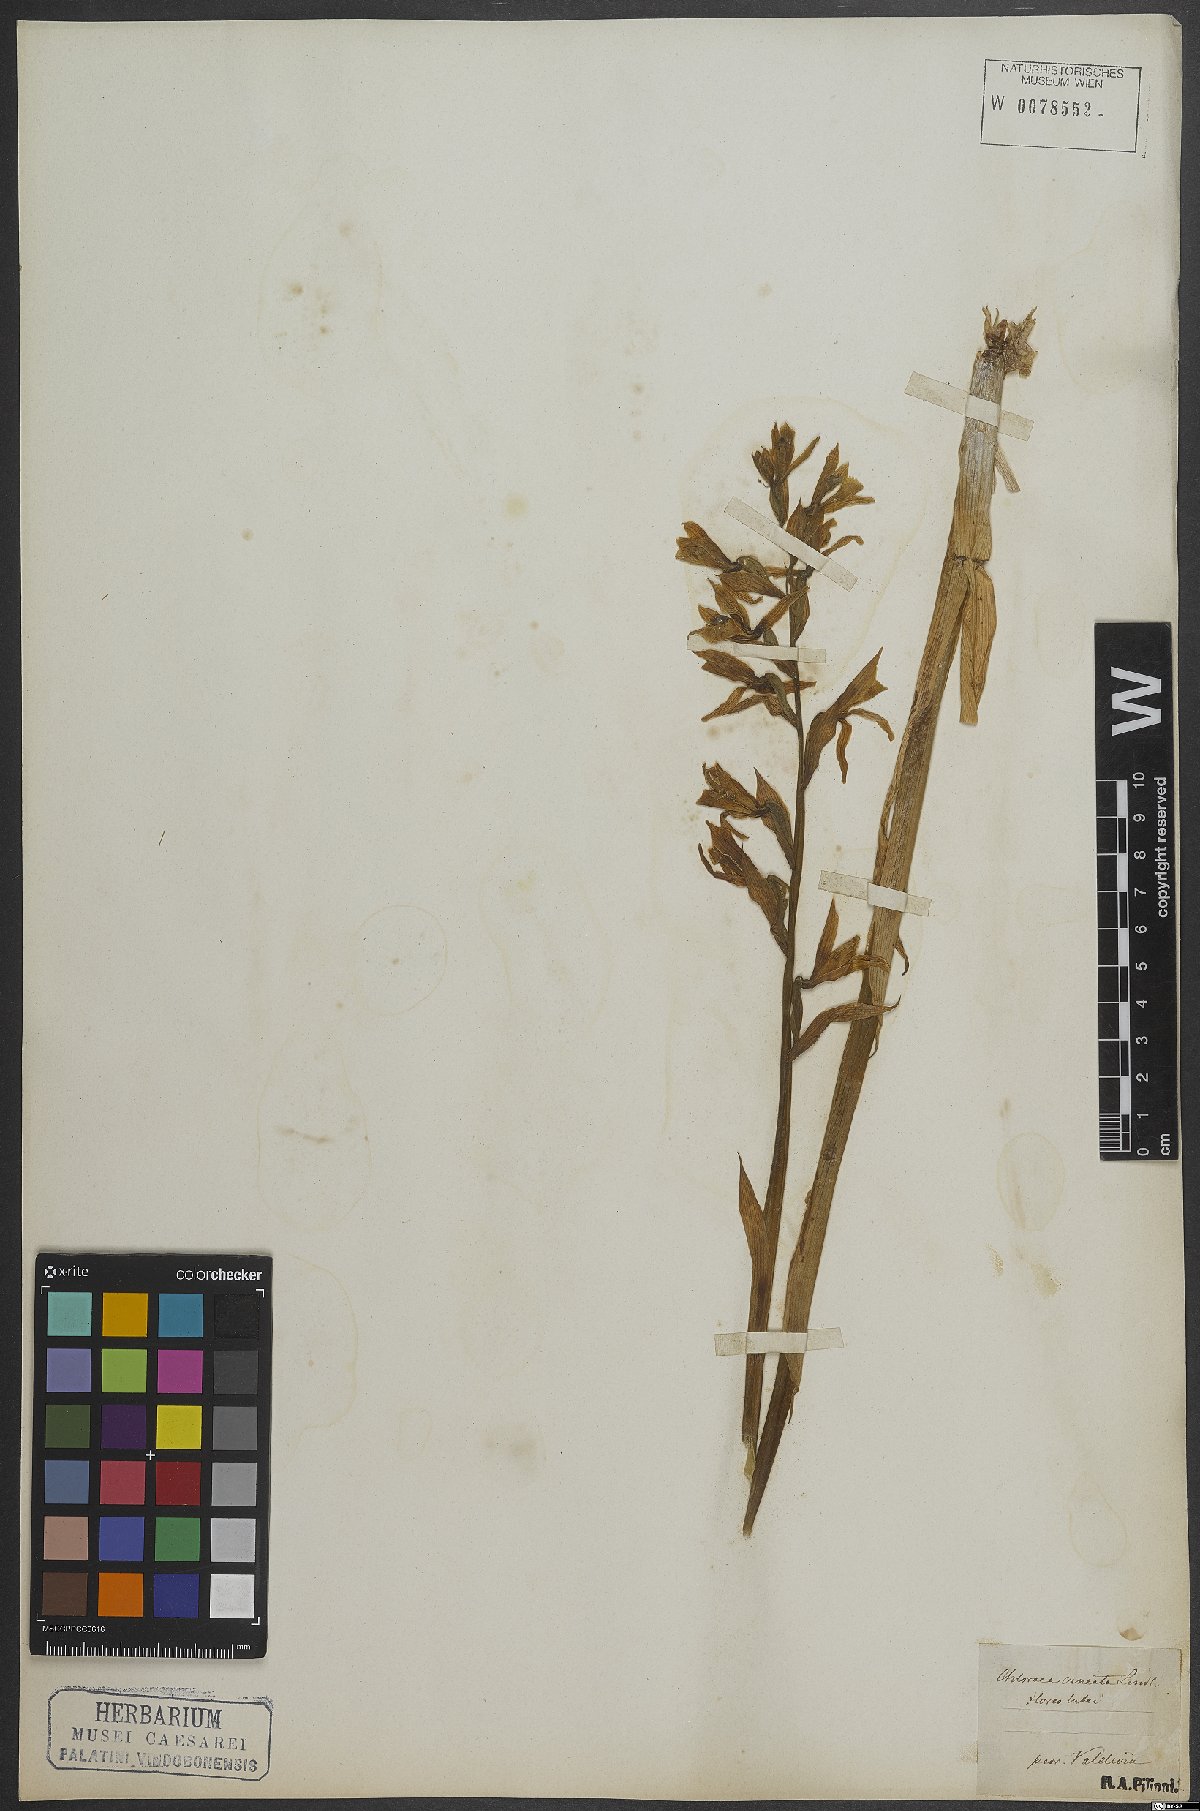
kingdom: Plantae
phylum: Tracheophyta
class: Liliopsida
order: Asparagales
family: Orchidaceae
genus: Chloraea
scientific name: Chloraea
